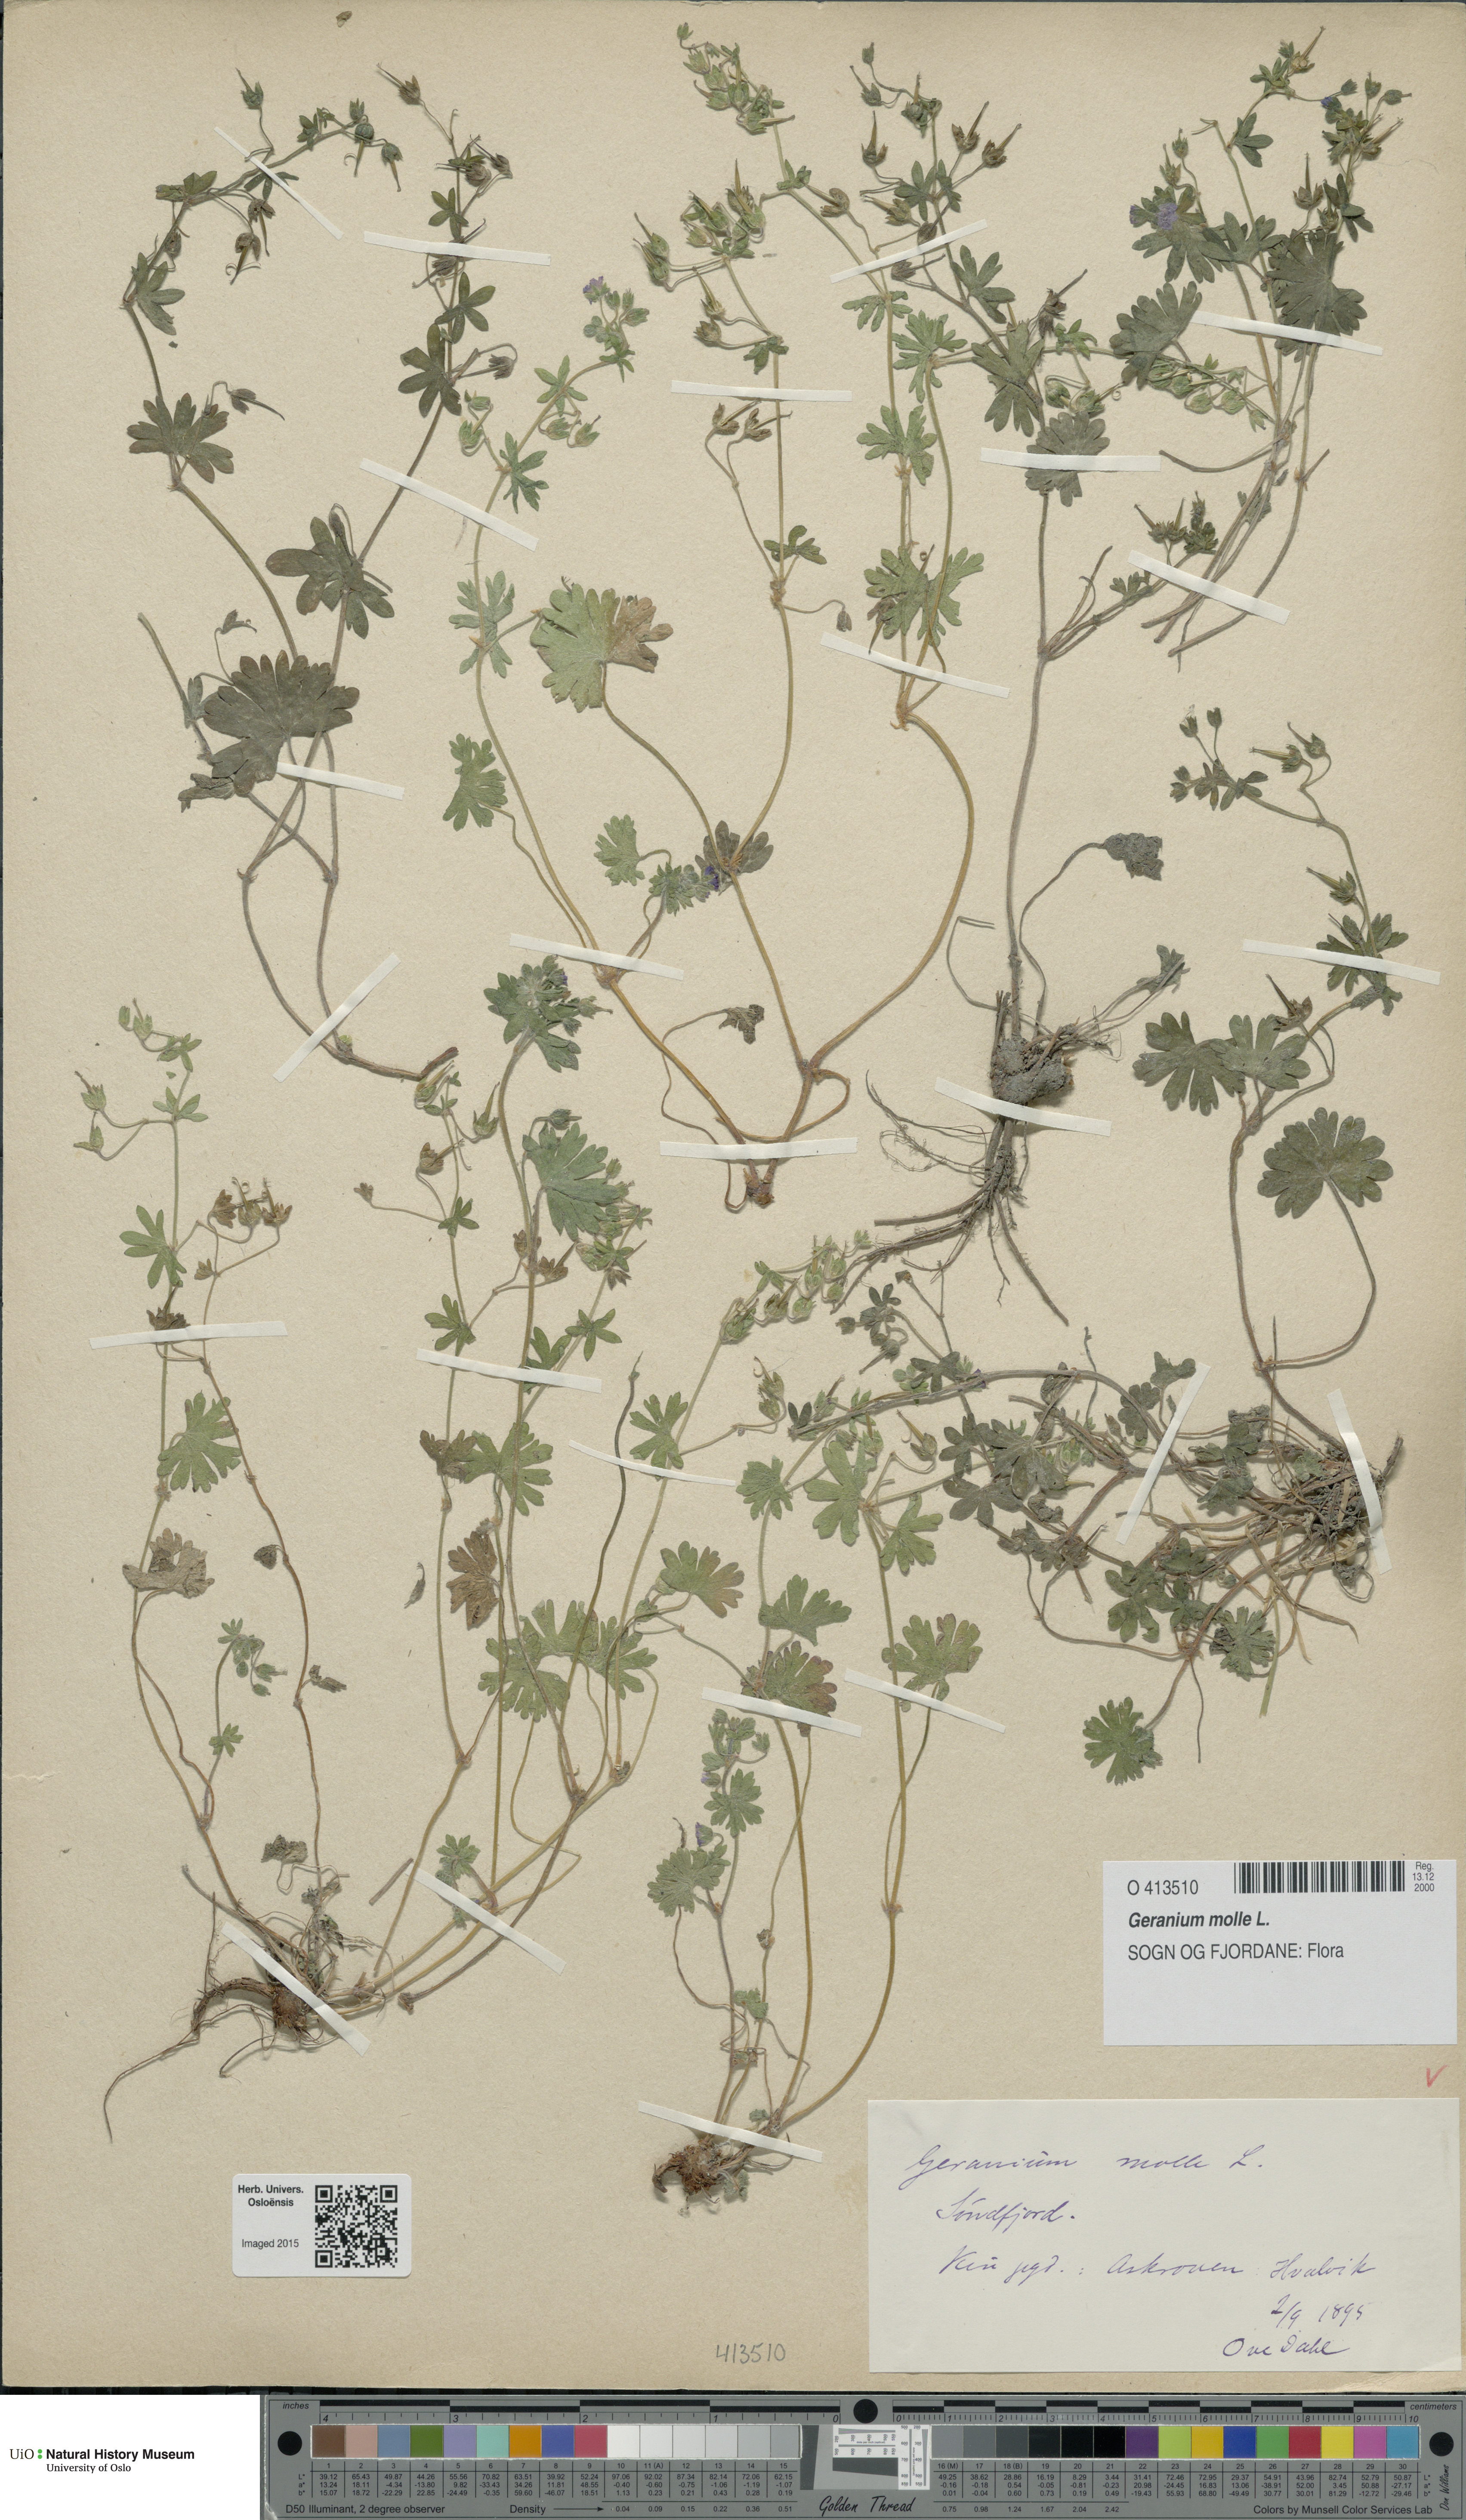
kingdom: Plantae
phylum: Tracheophyta
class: Magnoliopsida
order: Geraniales
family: Geraniaceae
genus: Geranium
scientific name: Geranium molle
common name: Dove's-foot crane's-bill
